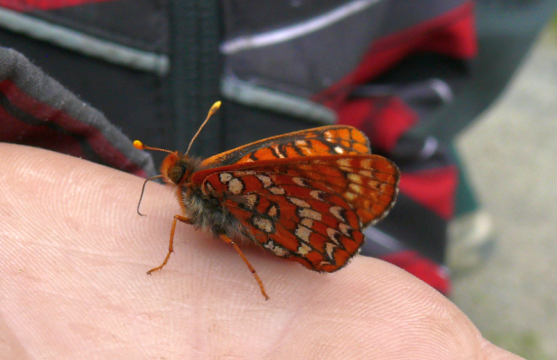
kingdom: Animalia
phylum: Arthropoda
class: Insecta
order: Lepidoptera
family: Nymphalidae
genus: Occidryas
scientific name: Occidryas anicia
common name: Anicia Checkerspot
